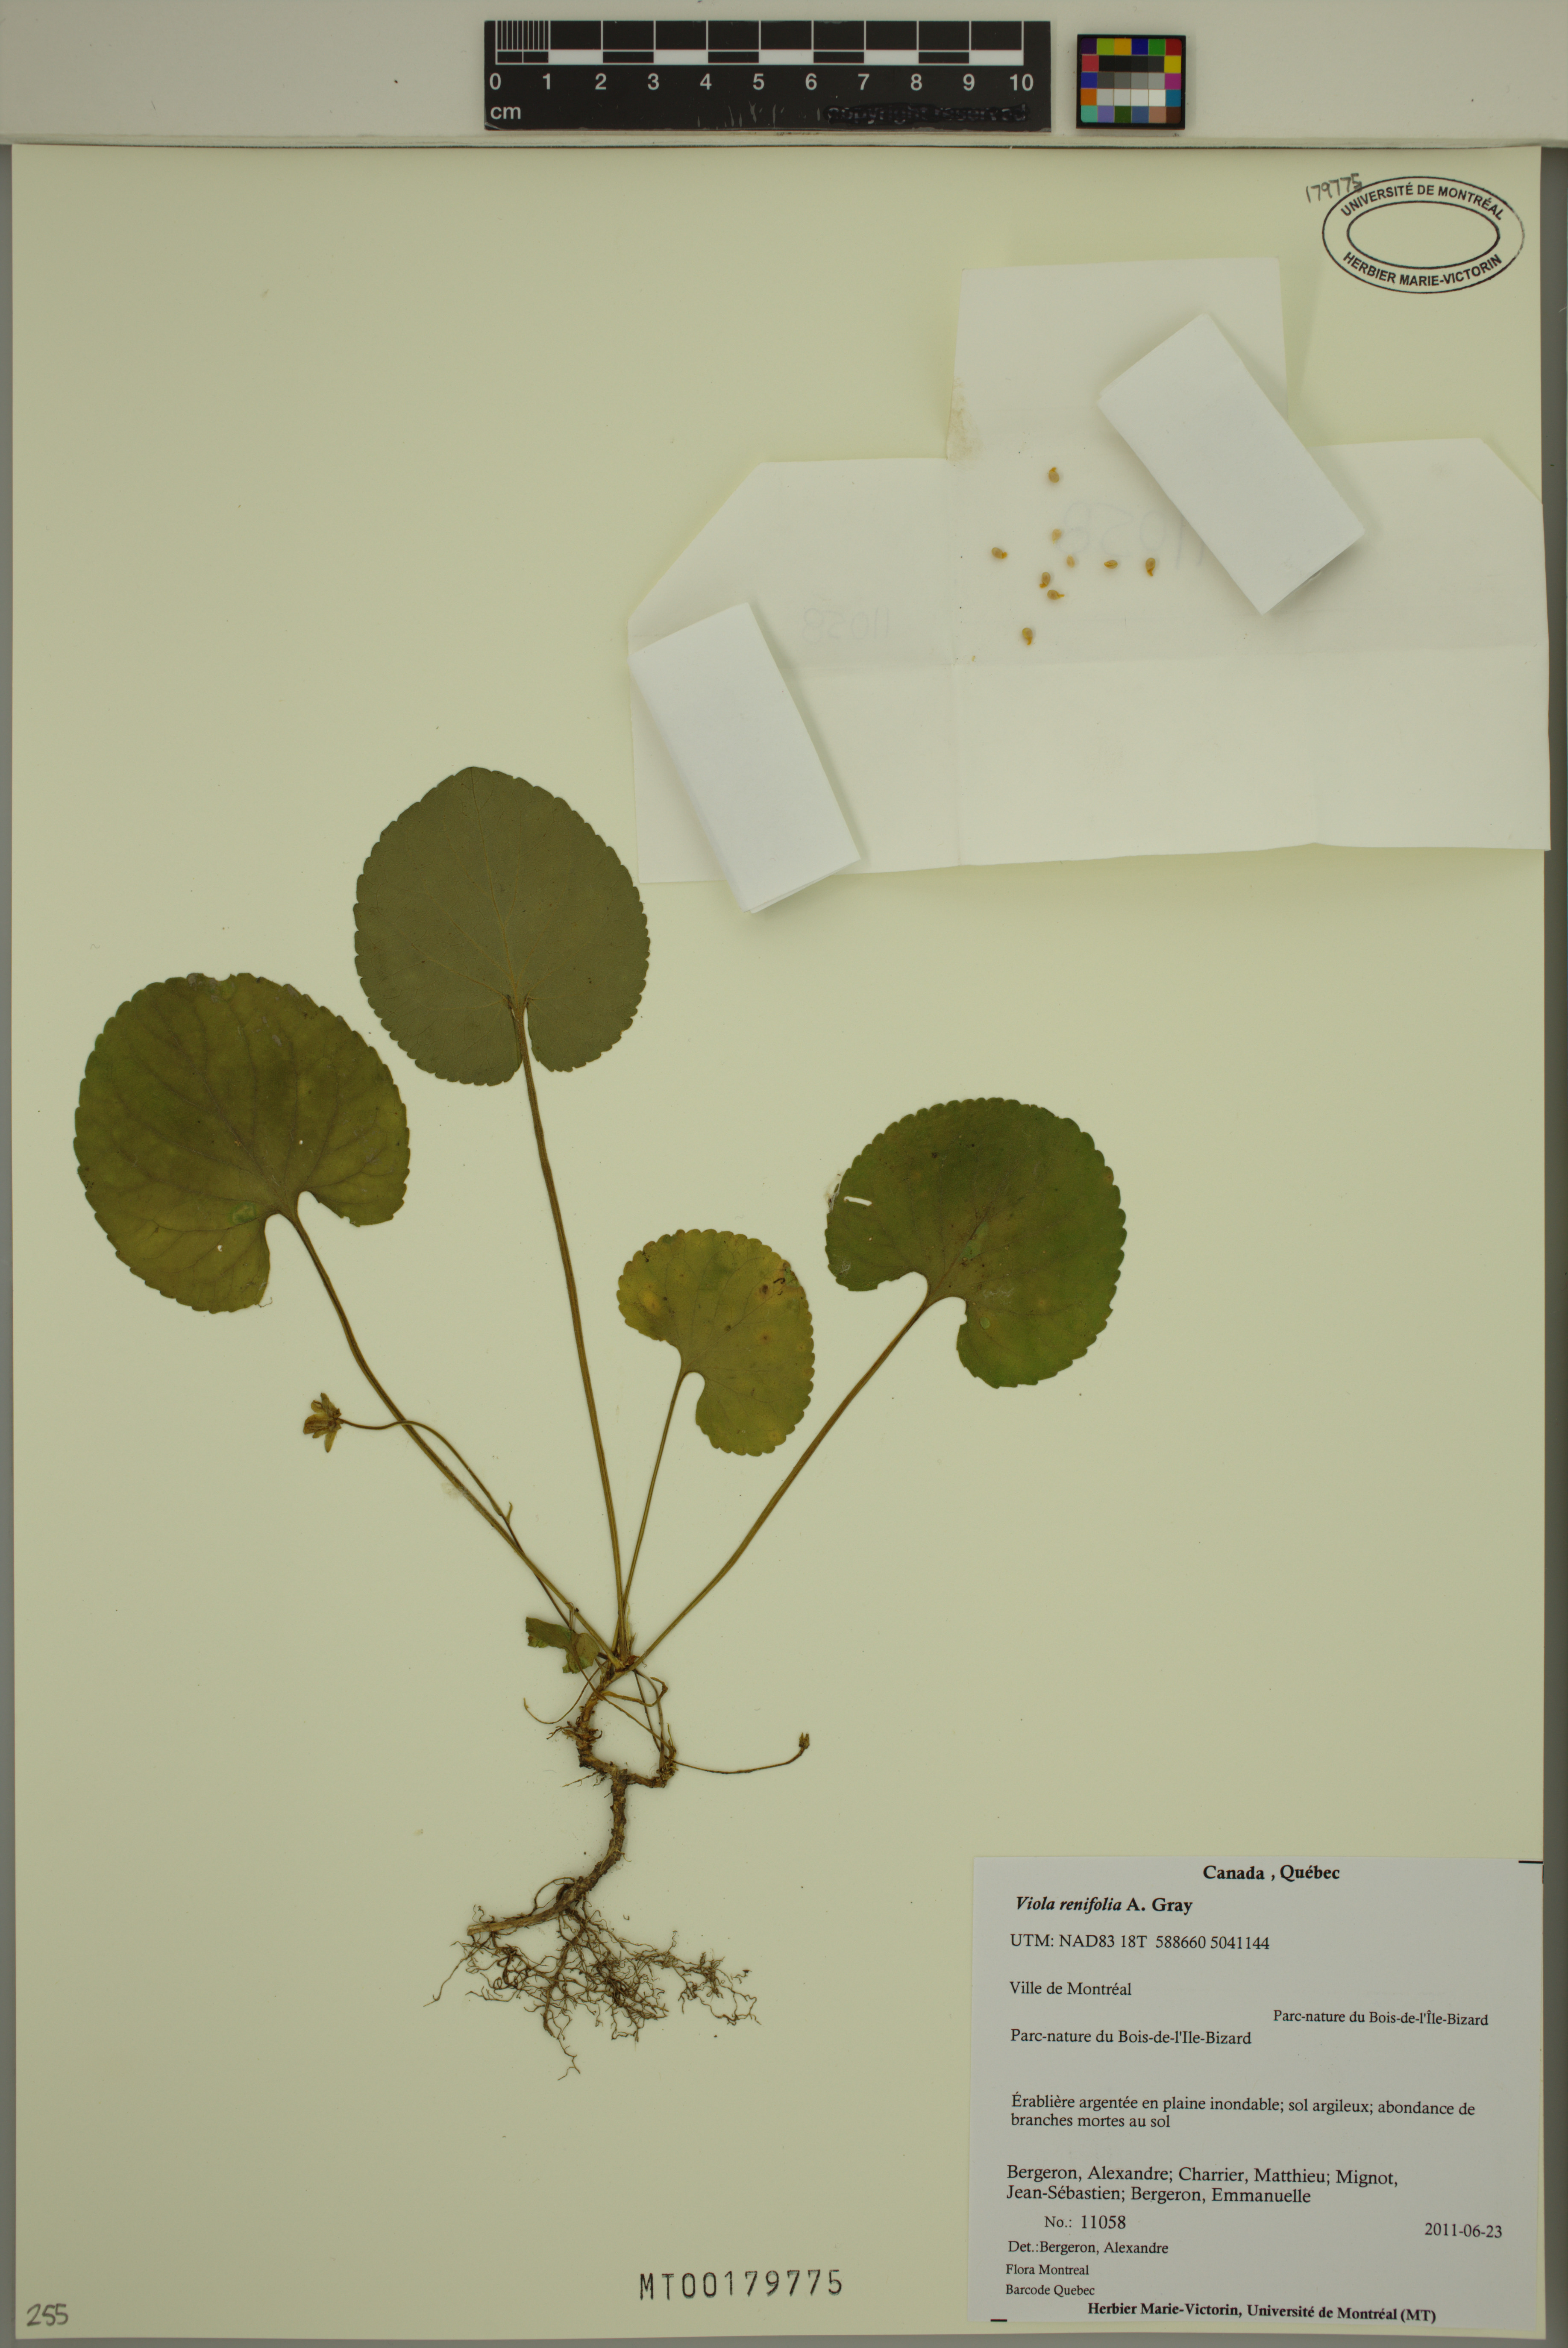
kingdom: Plantae
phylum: Tracheophyta
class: Magnoliopsida
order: Malpighiales
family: Violaceae
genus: Viola
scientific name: Viola renifolia
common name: Kidney-leaf violet
